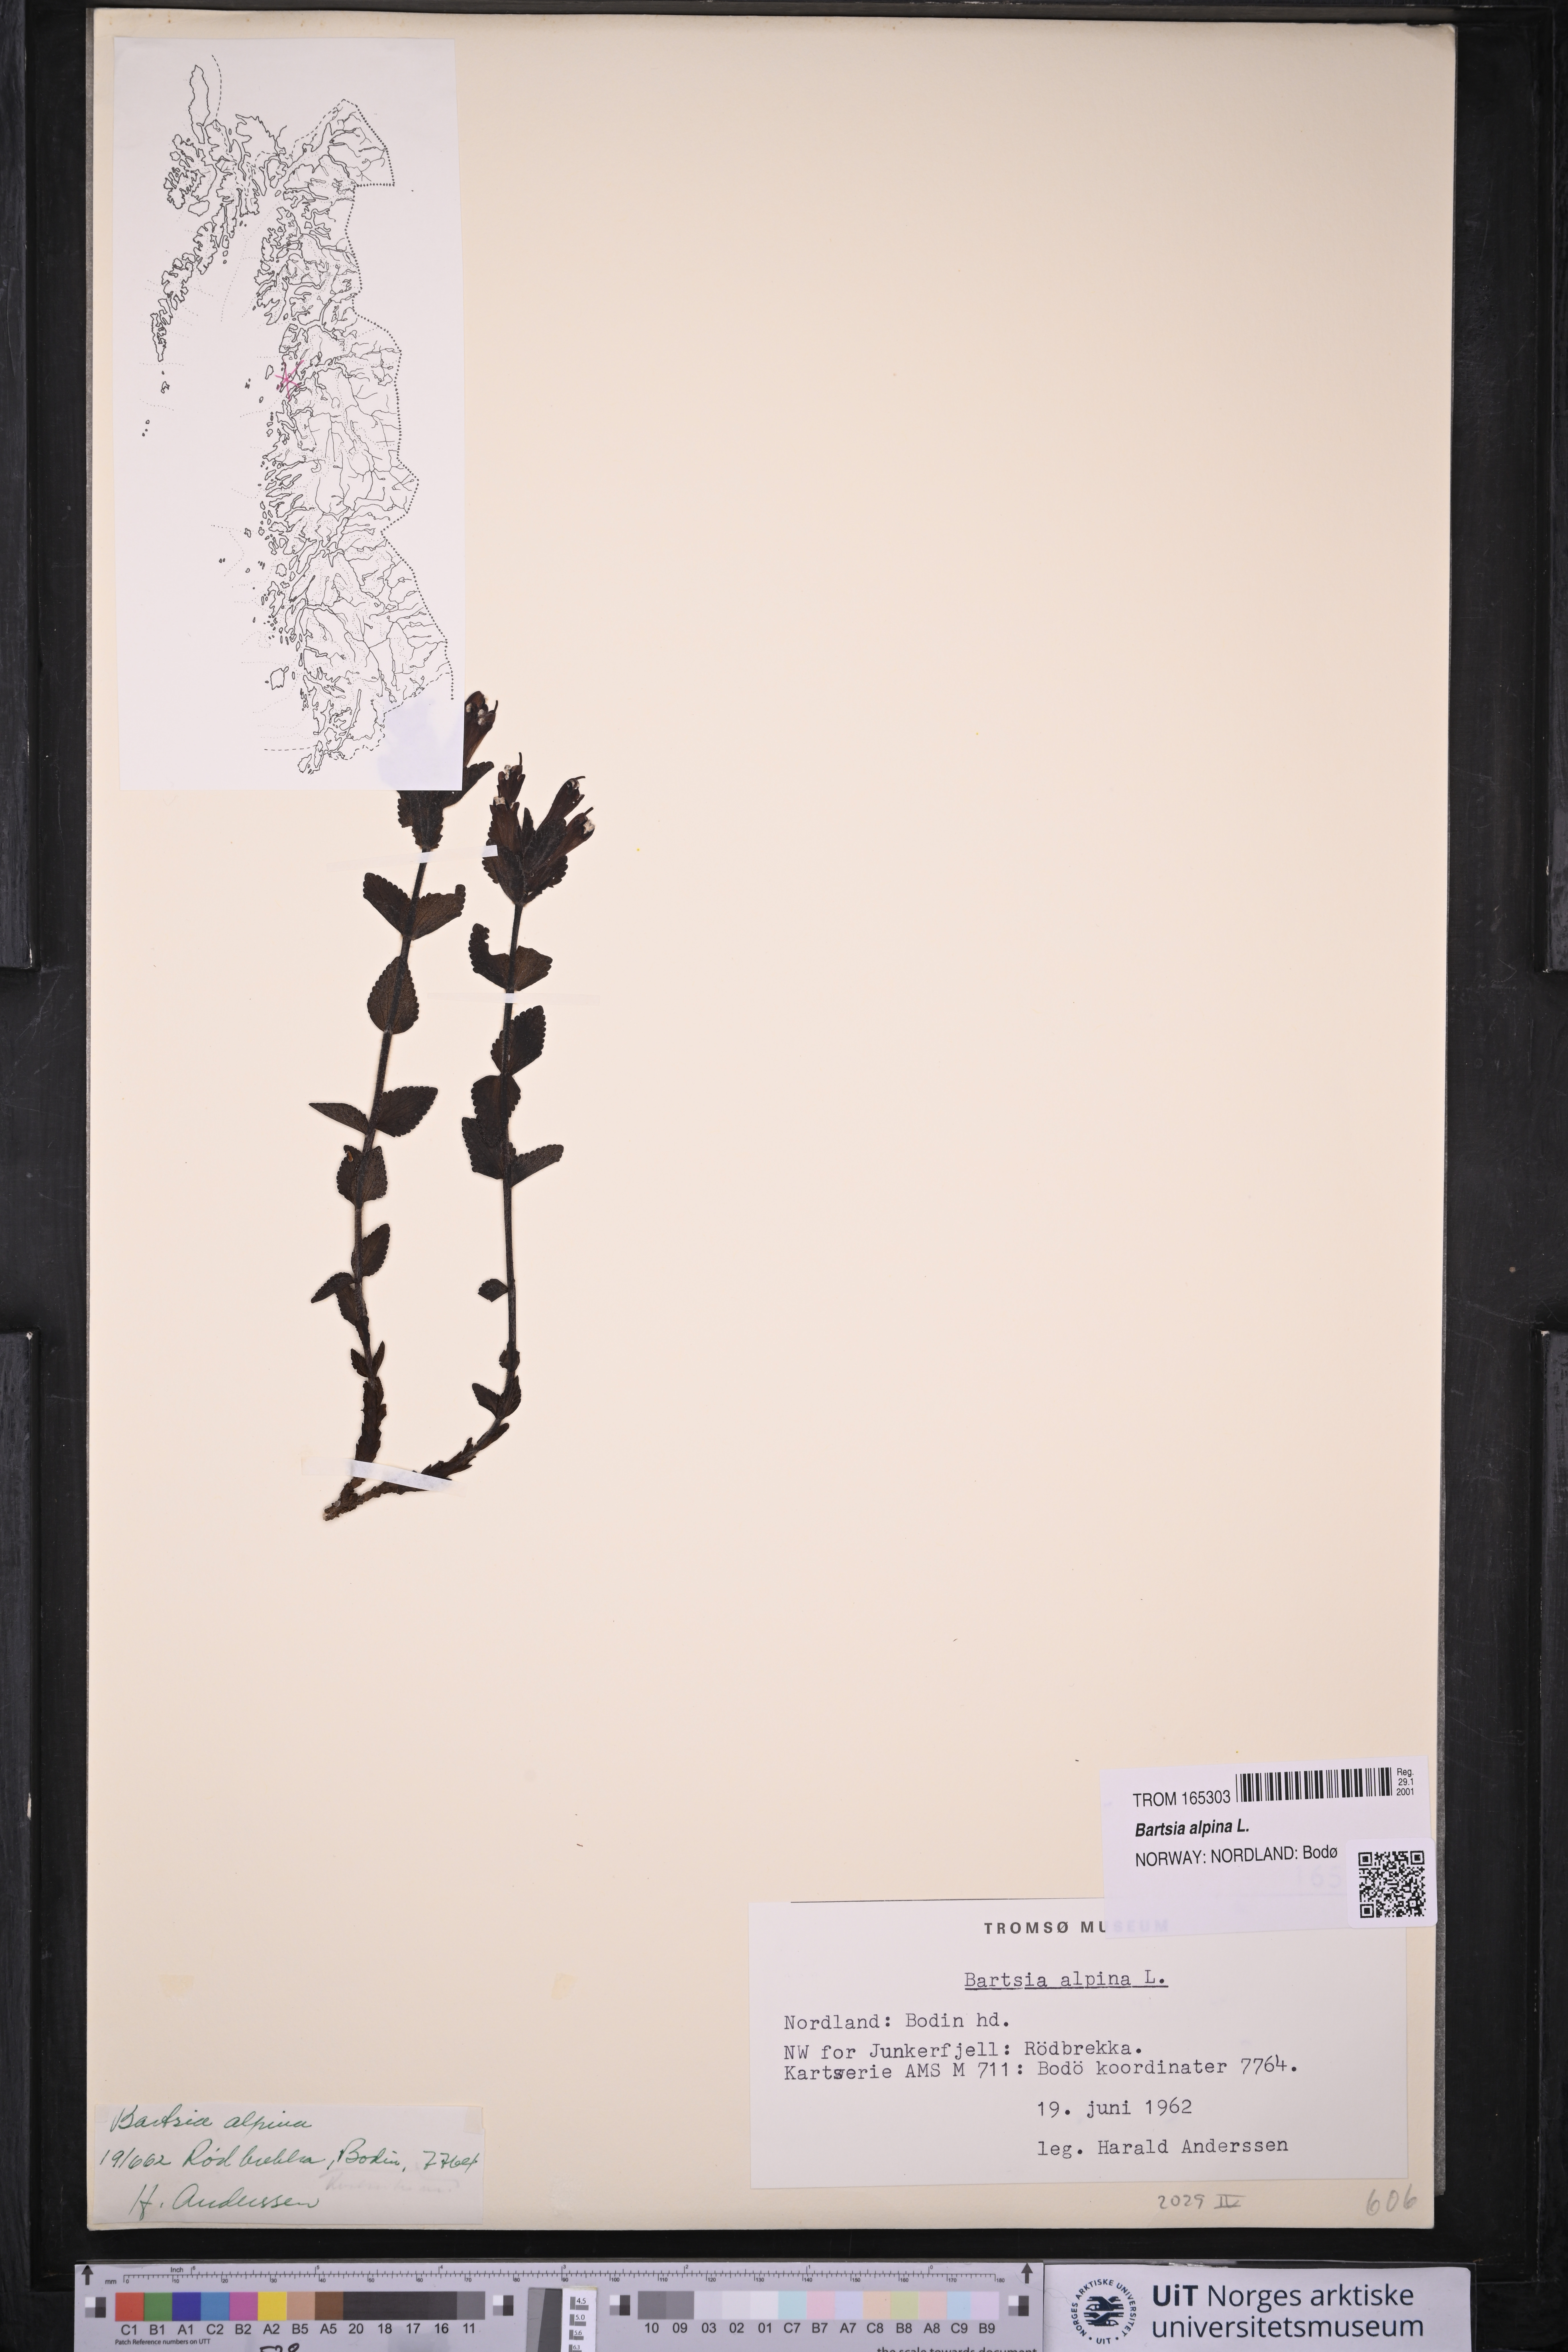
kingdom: Plantae
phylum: Tracheophyta
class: Magnoliopsida
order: Lamiales
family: Orobanchaceae
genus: Bartsia
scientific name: Bartsia alpina
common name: Alpine bartsia
